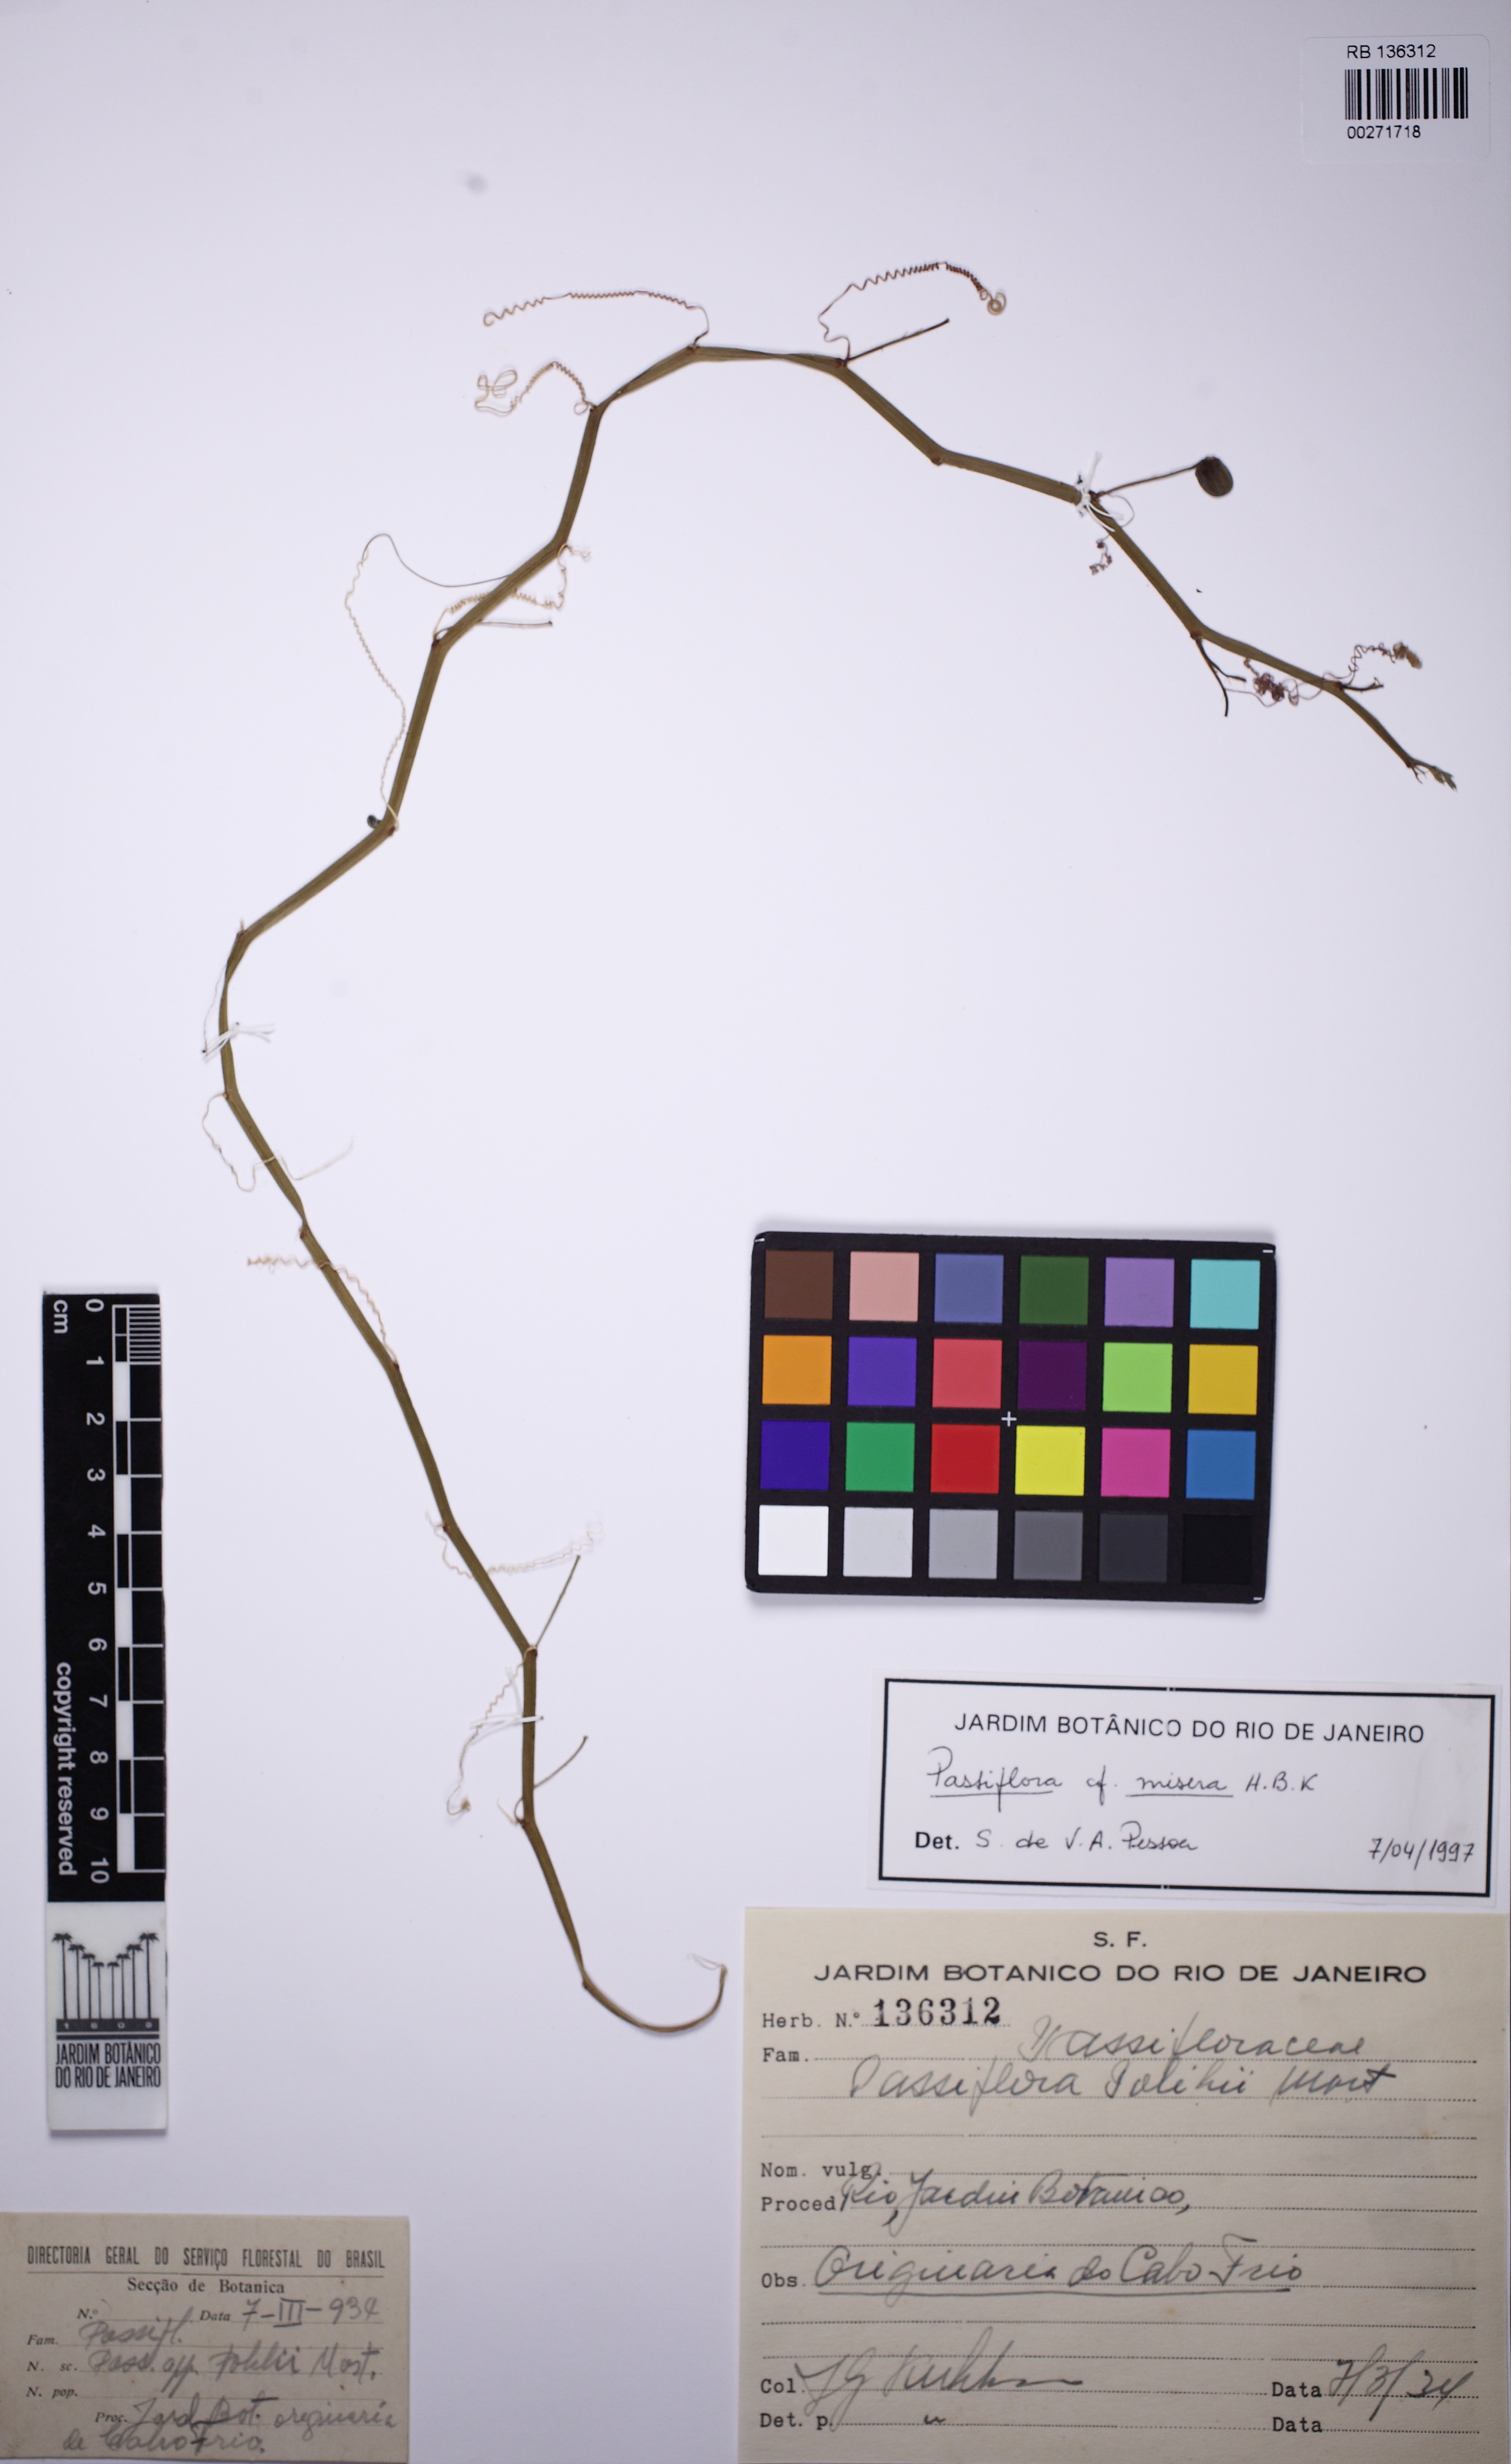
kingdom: Plantae
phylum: Tracheophyta
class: Magnoliopsida
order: Malpighiales
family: Passifloraceae
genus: Passiflora
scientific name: Passiflora misera
